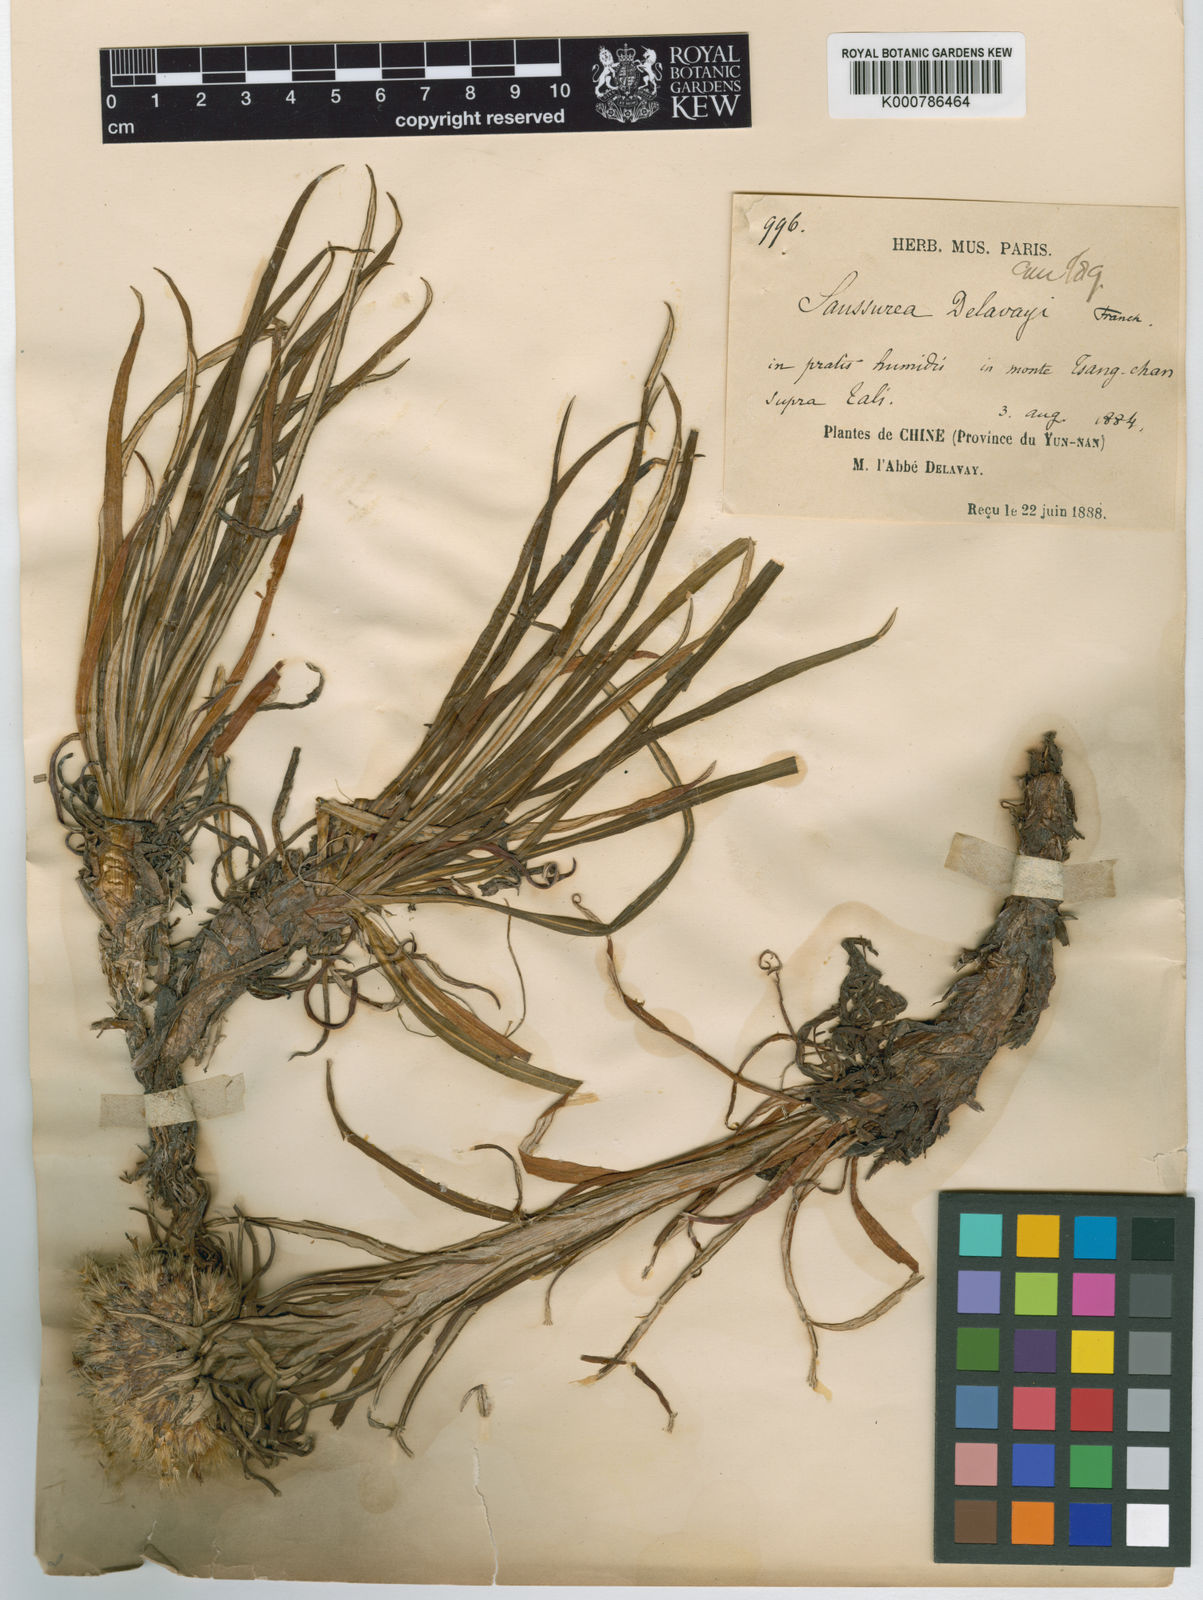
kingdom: Plantae
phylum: Tracheophyta
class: Magnoliopsida
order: Asterales
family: Asteraceae
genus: Saussurea
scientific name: Saussurea delavayi
